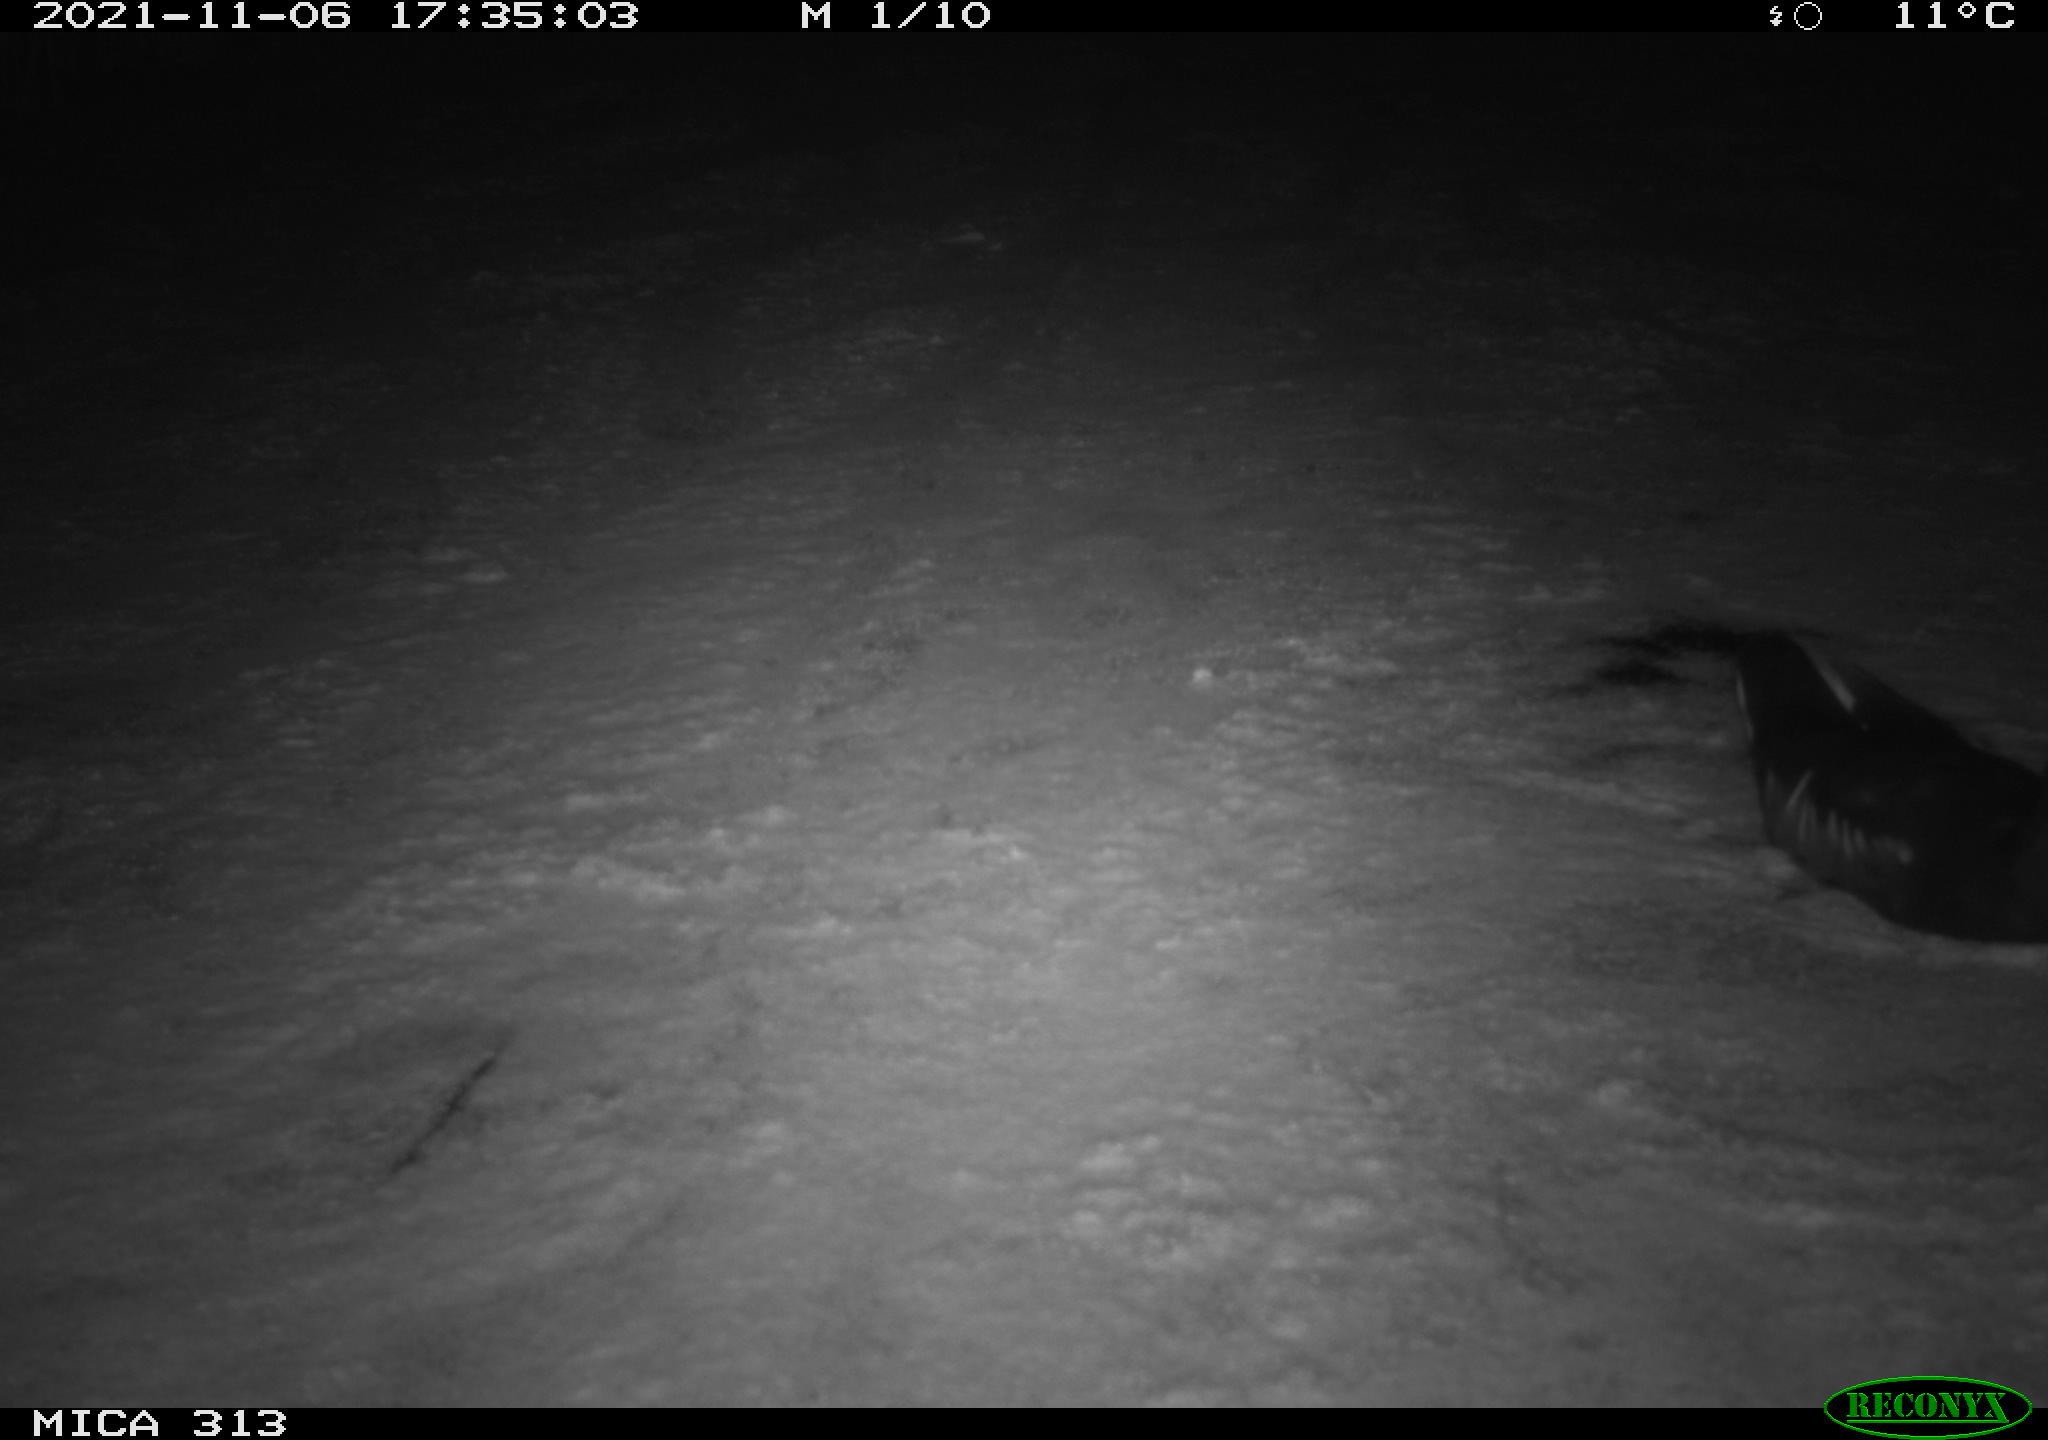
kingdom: Animalia
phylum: Chordata
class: Aves
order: Gruiformes
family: Rallidae
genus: Gallinula
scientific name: Gallinula chloropus
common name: Common moorhen
